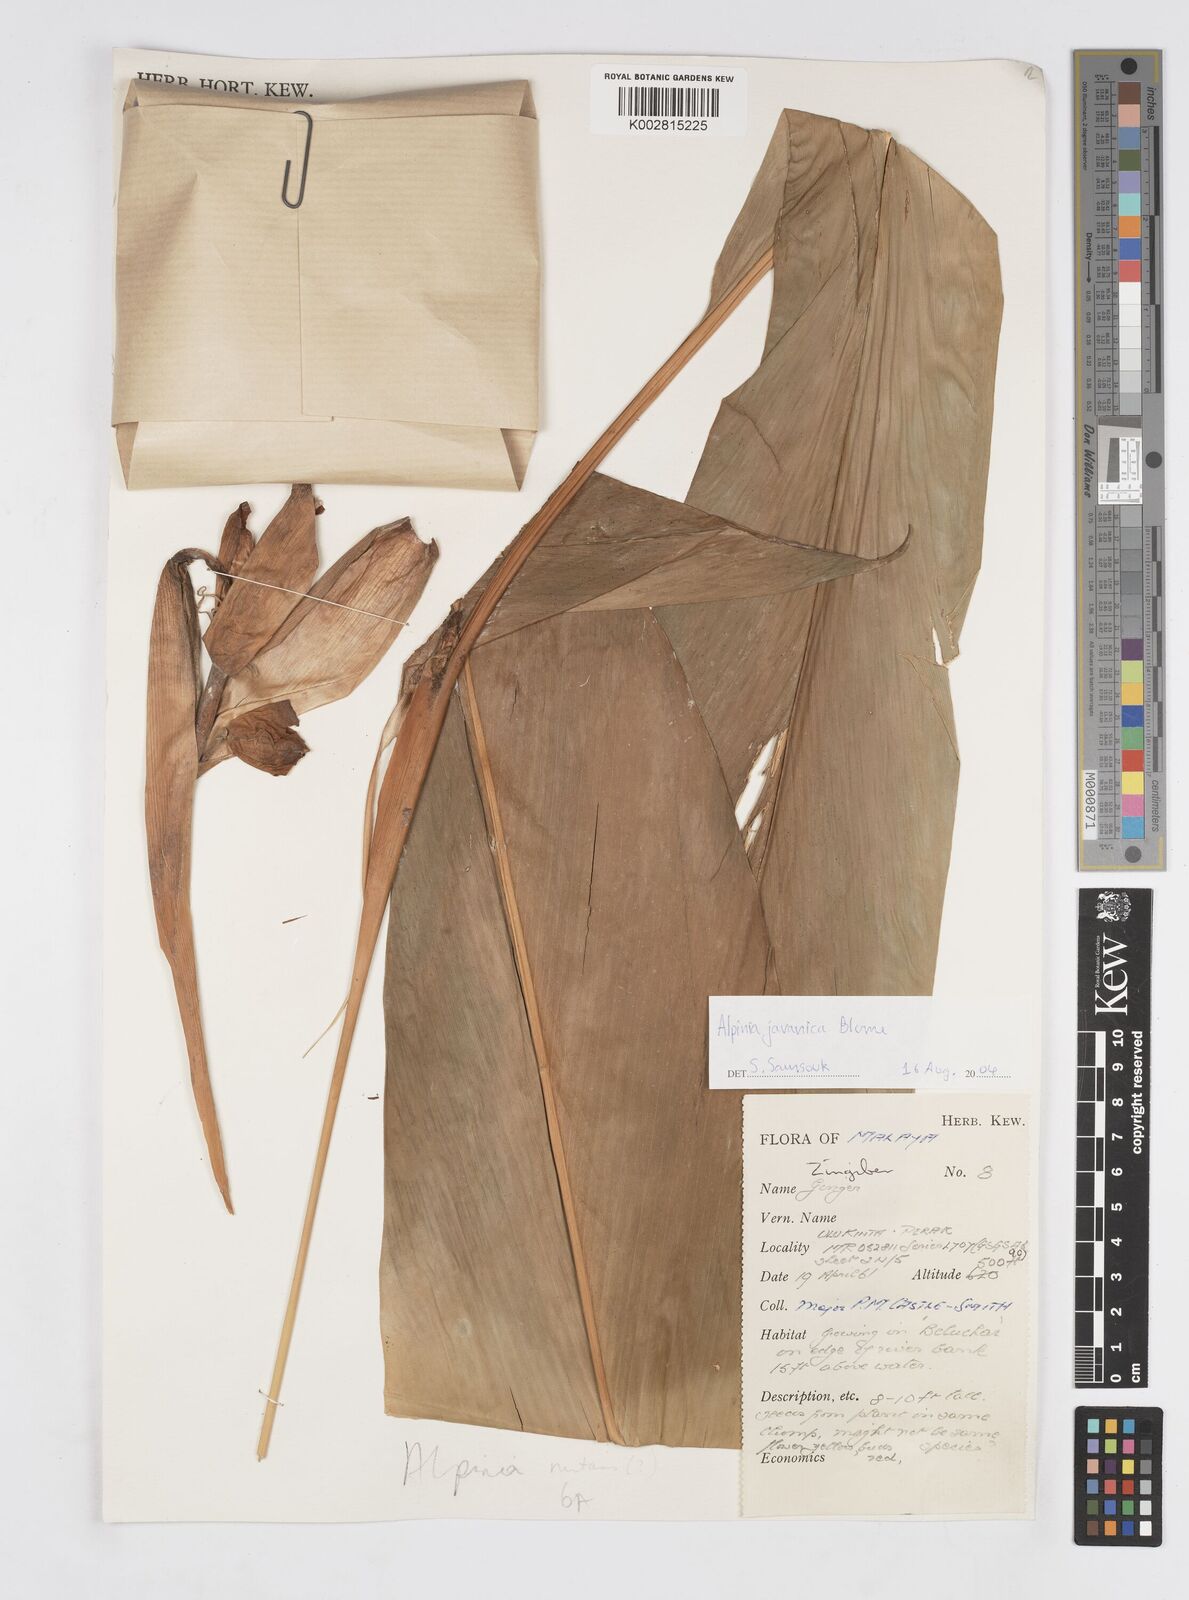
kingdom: Plantae
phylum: Tracheophyta
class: Liliopsida
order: Zingiberales
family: Zingiberaceae
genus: Alpinia
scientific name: Alpinia javanica
